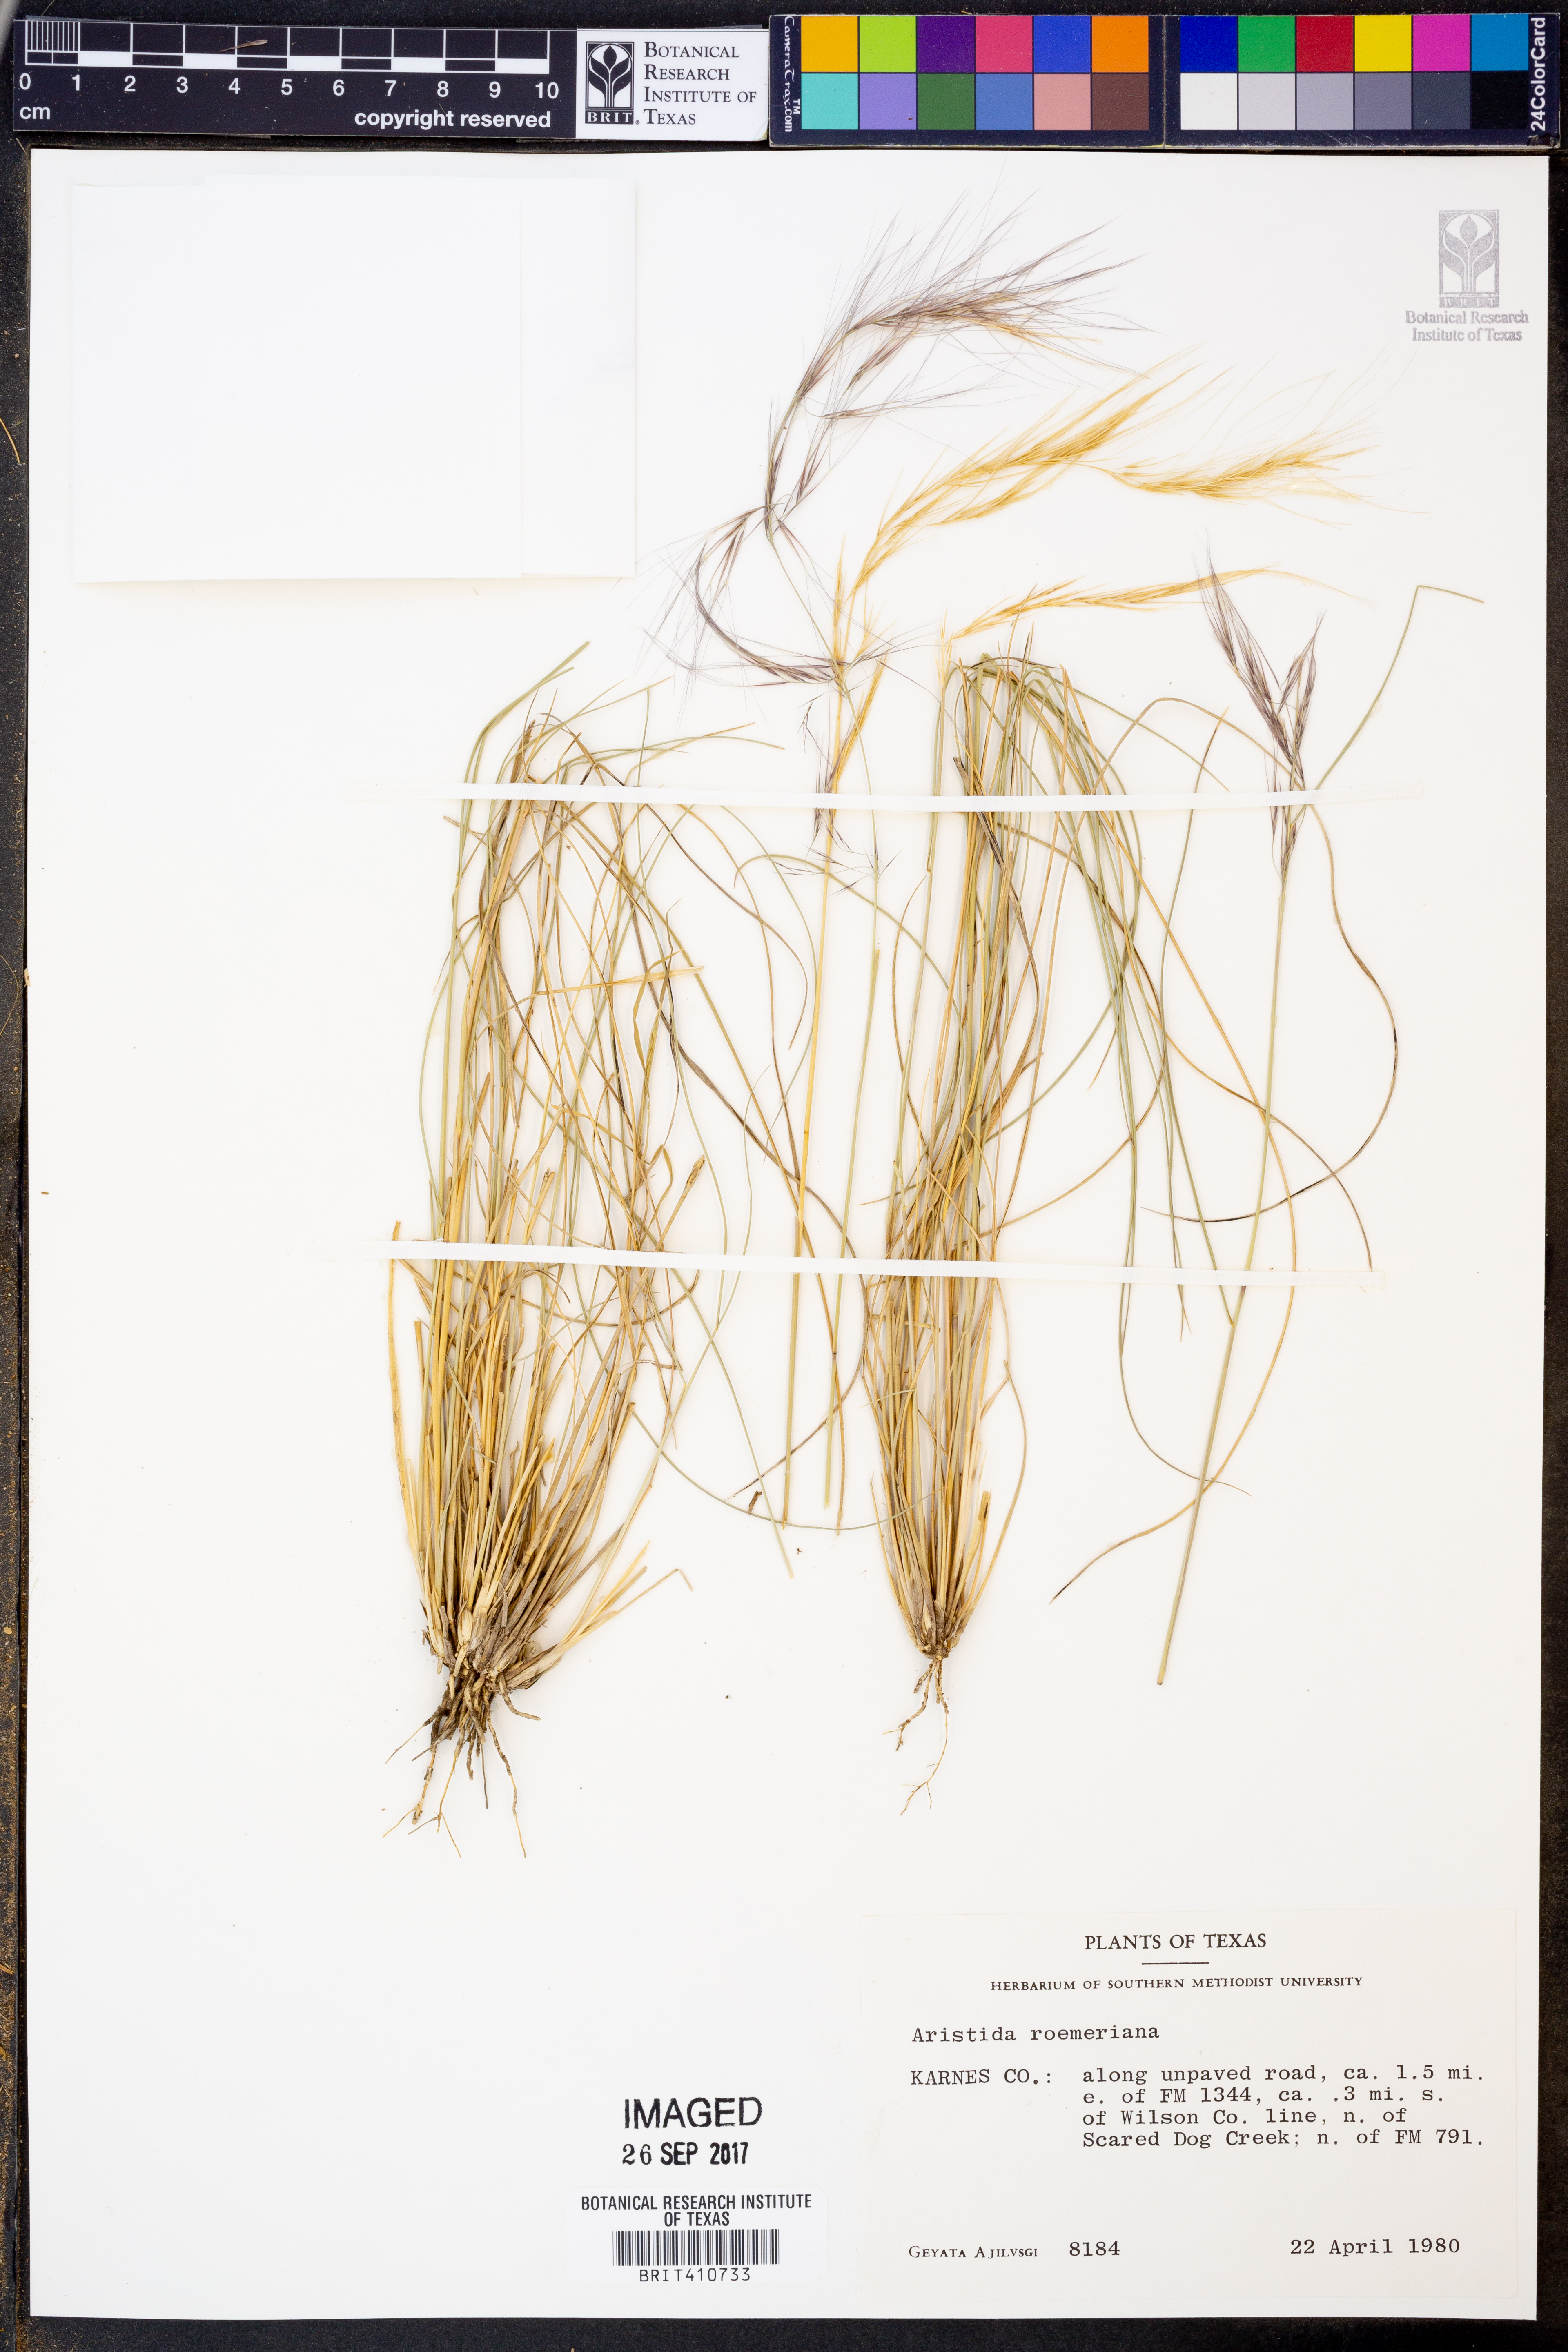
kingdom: Plantae
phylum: Tracheophyta
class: Liliopsida
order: Poales
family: Poaceae
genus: Aristida
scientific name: Aristida purpurea
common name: Purple threeawn
